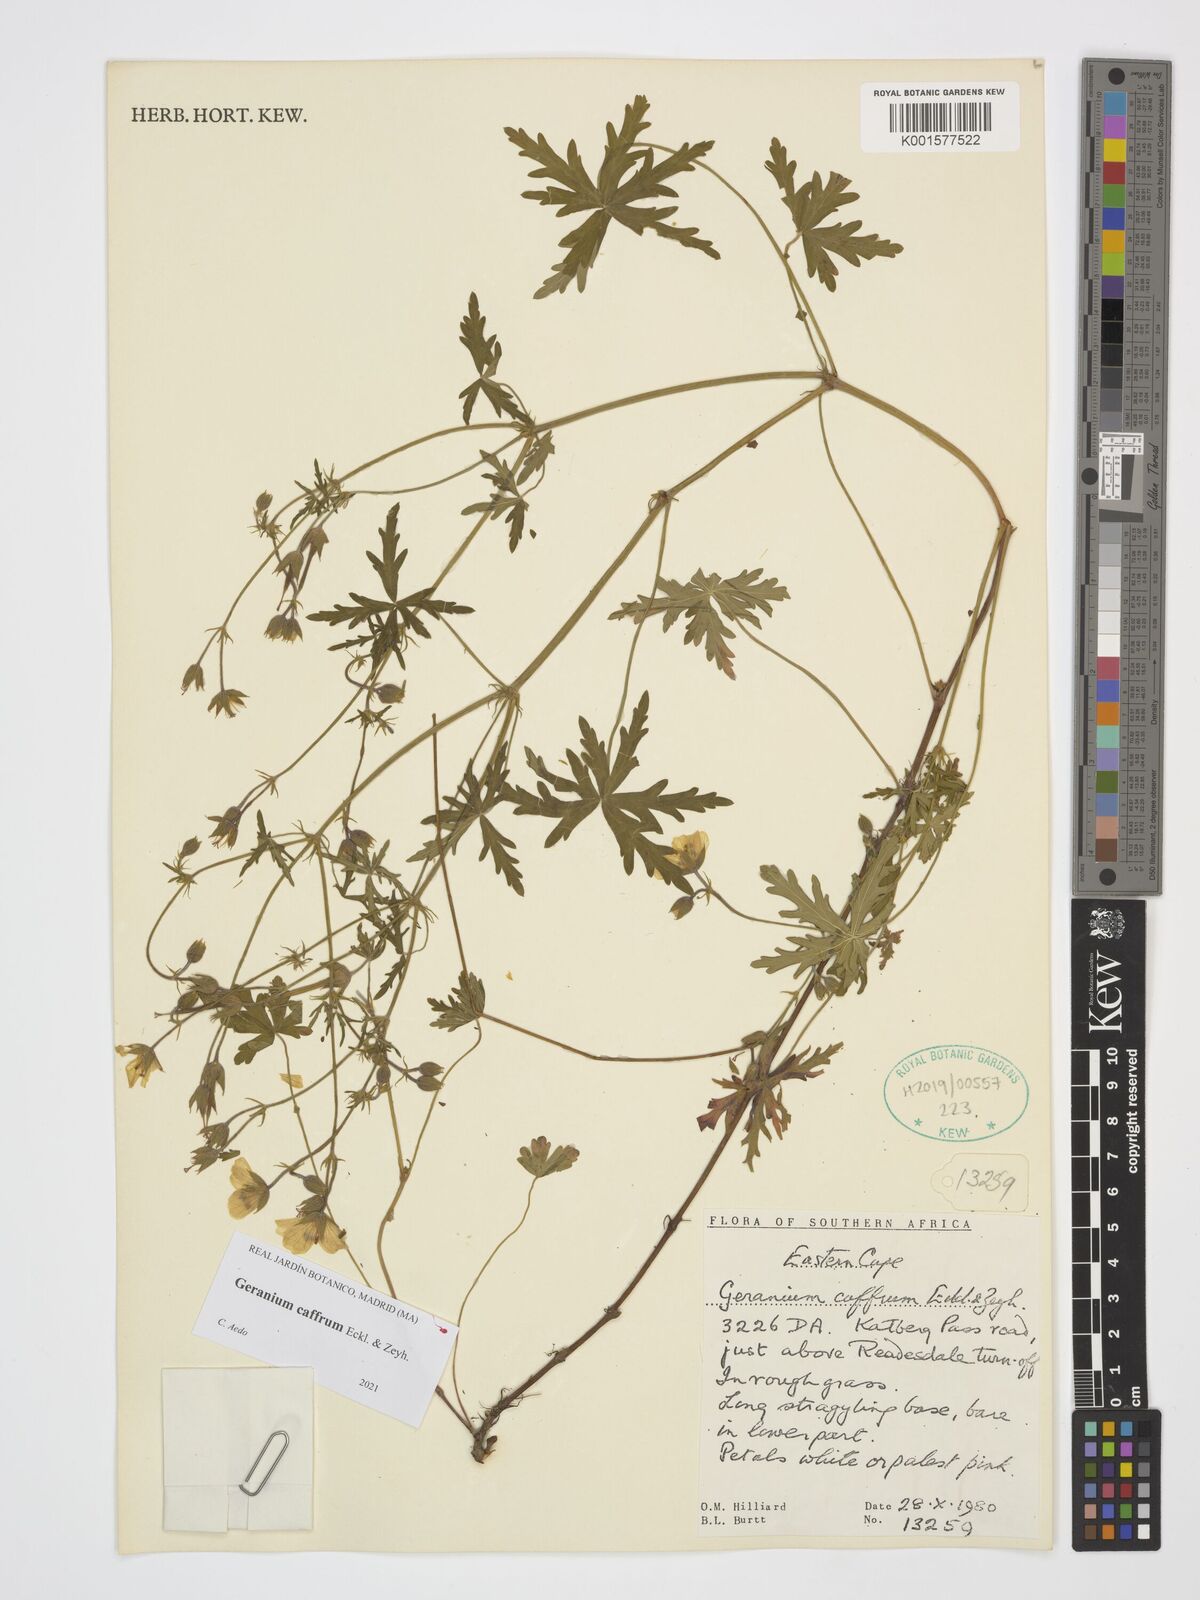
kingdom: Plantae
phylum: Tracheophyta
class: Magnoliopsida
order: Geraniales
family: Geraniaceae
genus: Geranium
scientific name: Geranium caffrum
